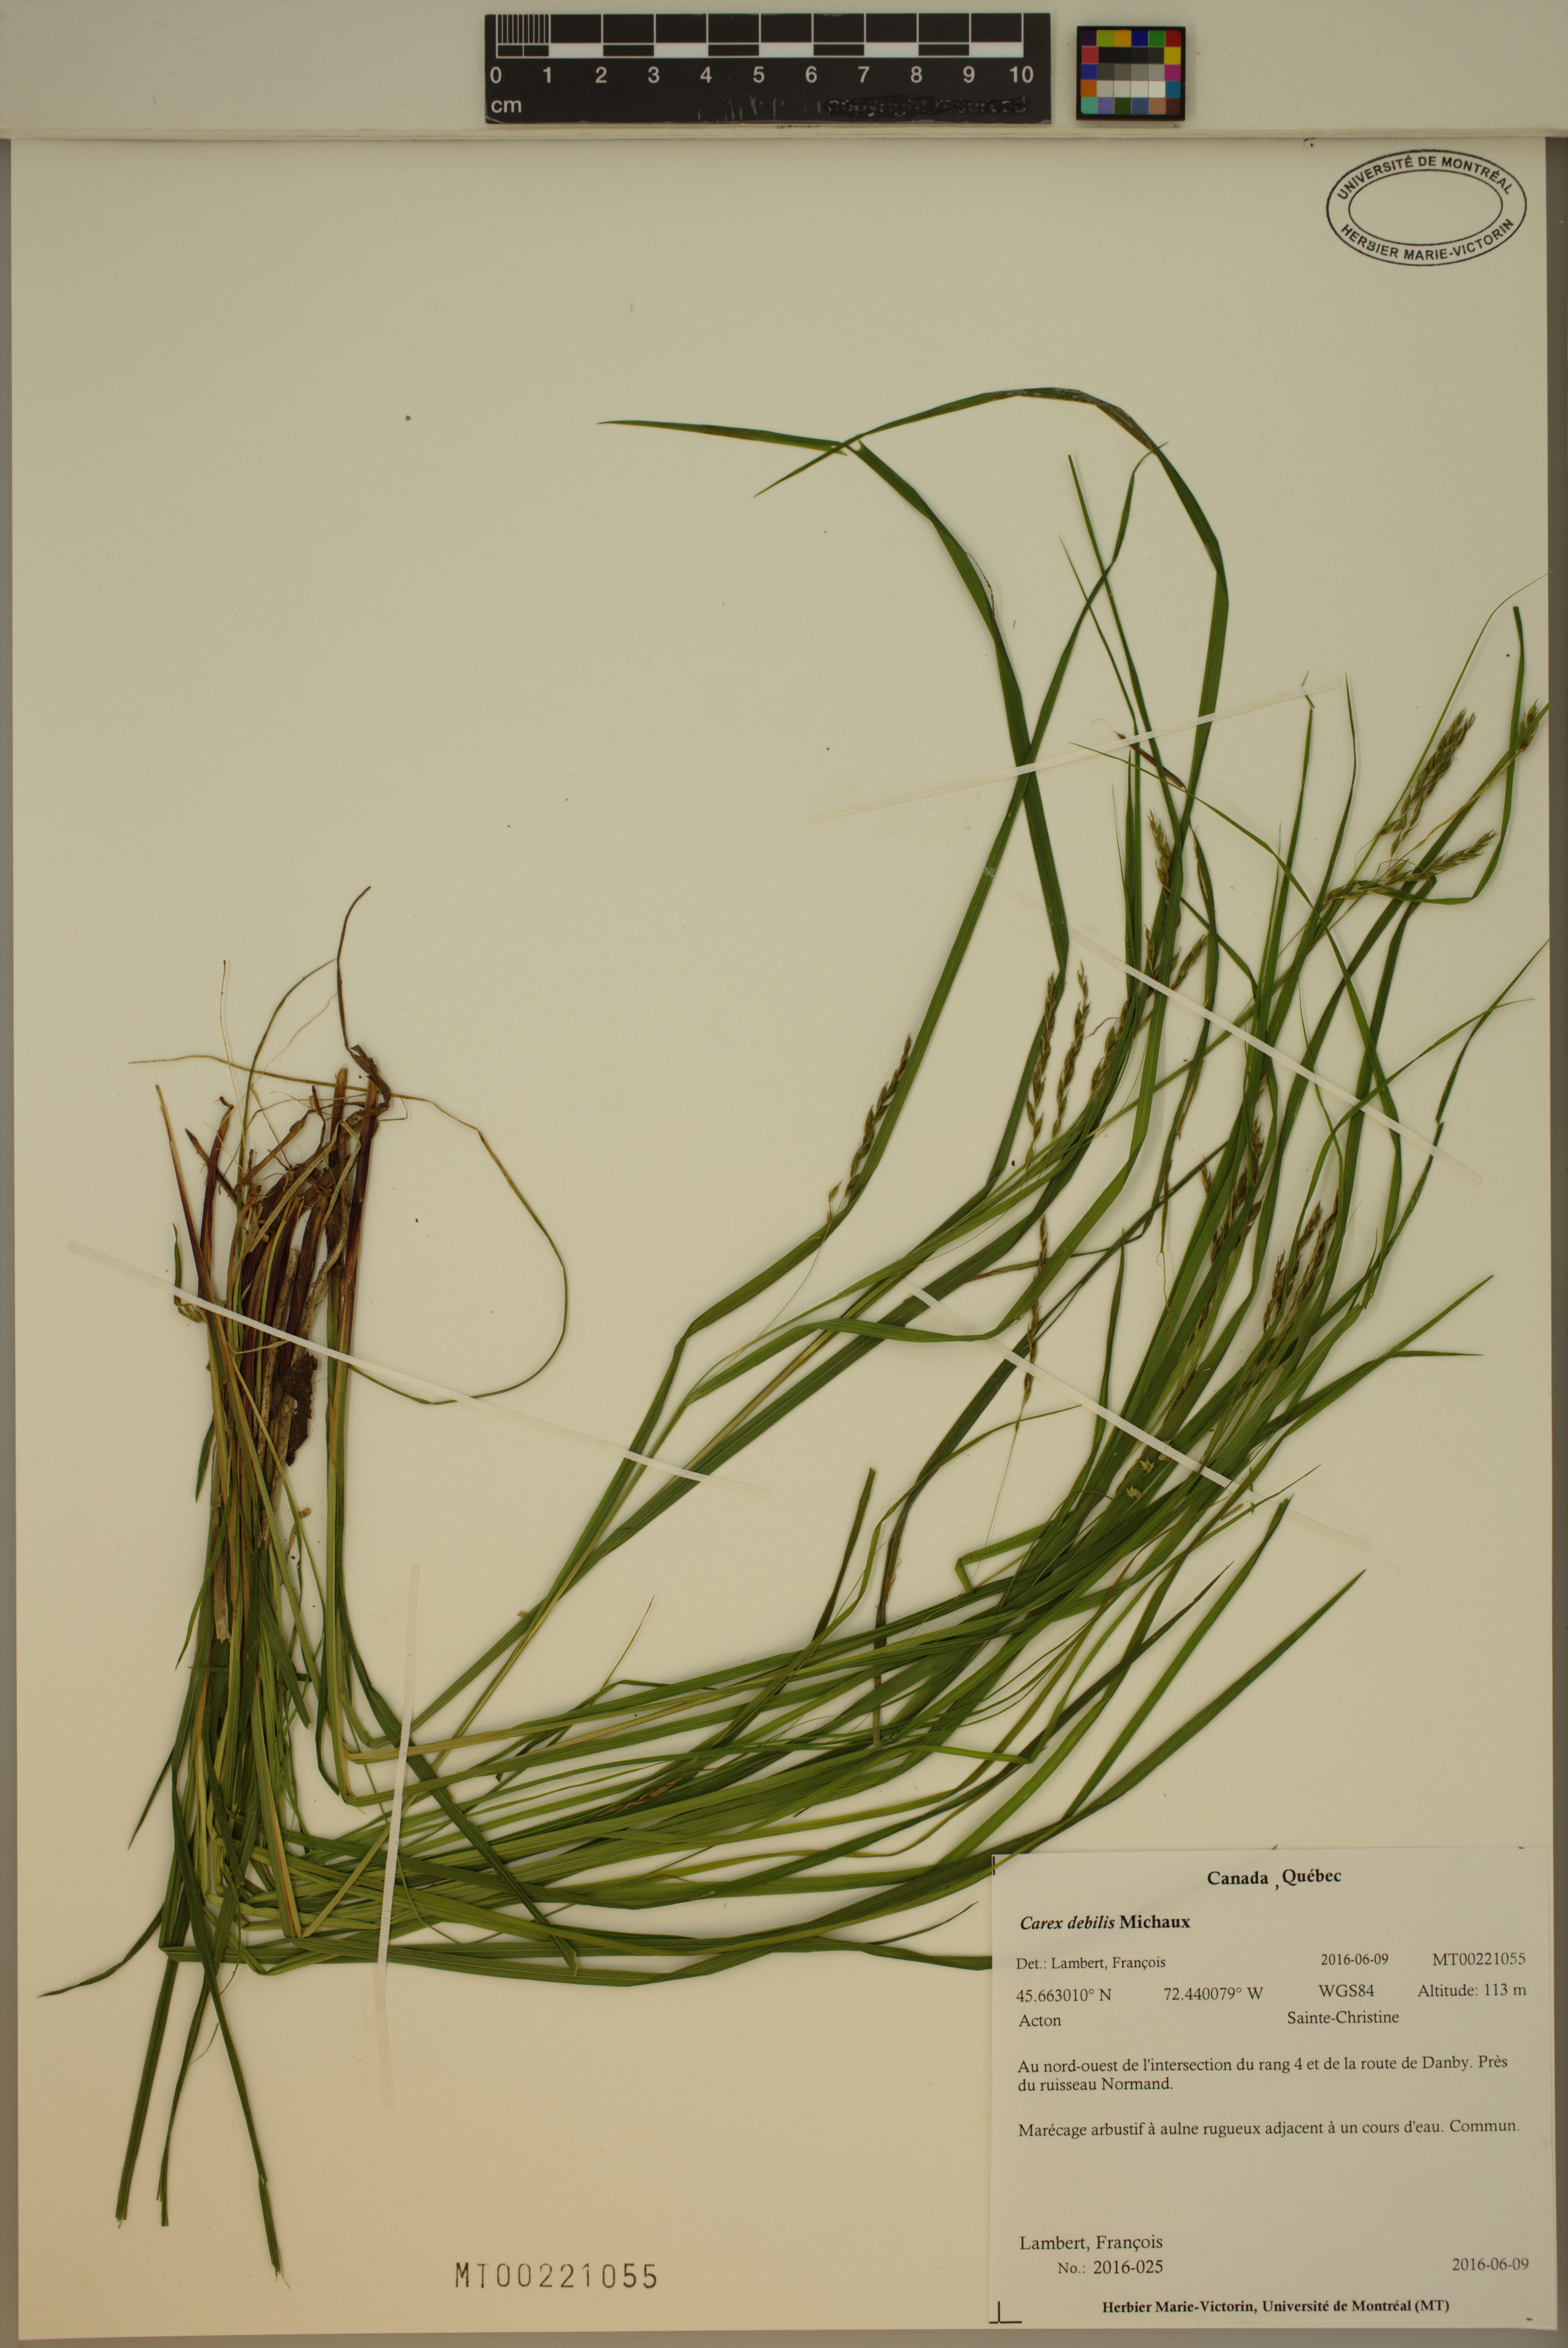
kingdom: Plantae
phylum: Tracheophyta
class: Liliopsida
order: Poales
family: Cyperaceae
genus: Carex
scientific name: Carex debilis
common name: White-edge sedge
